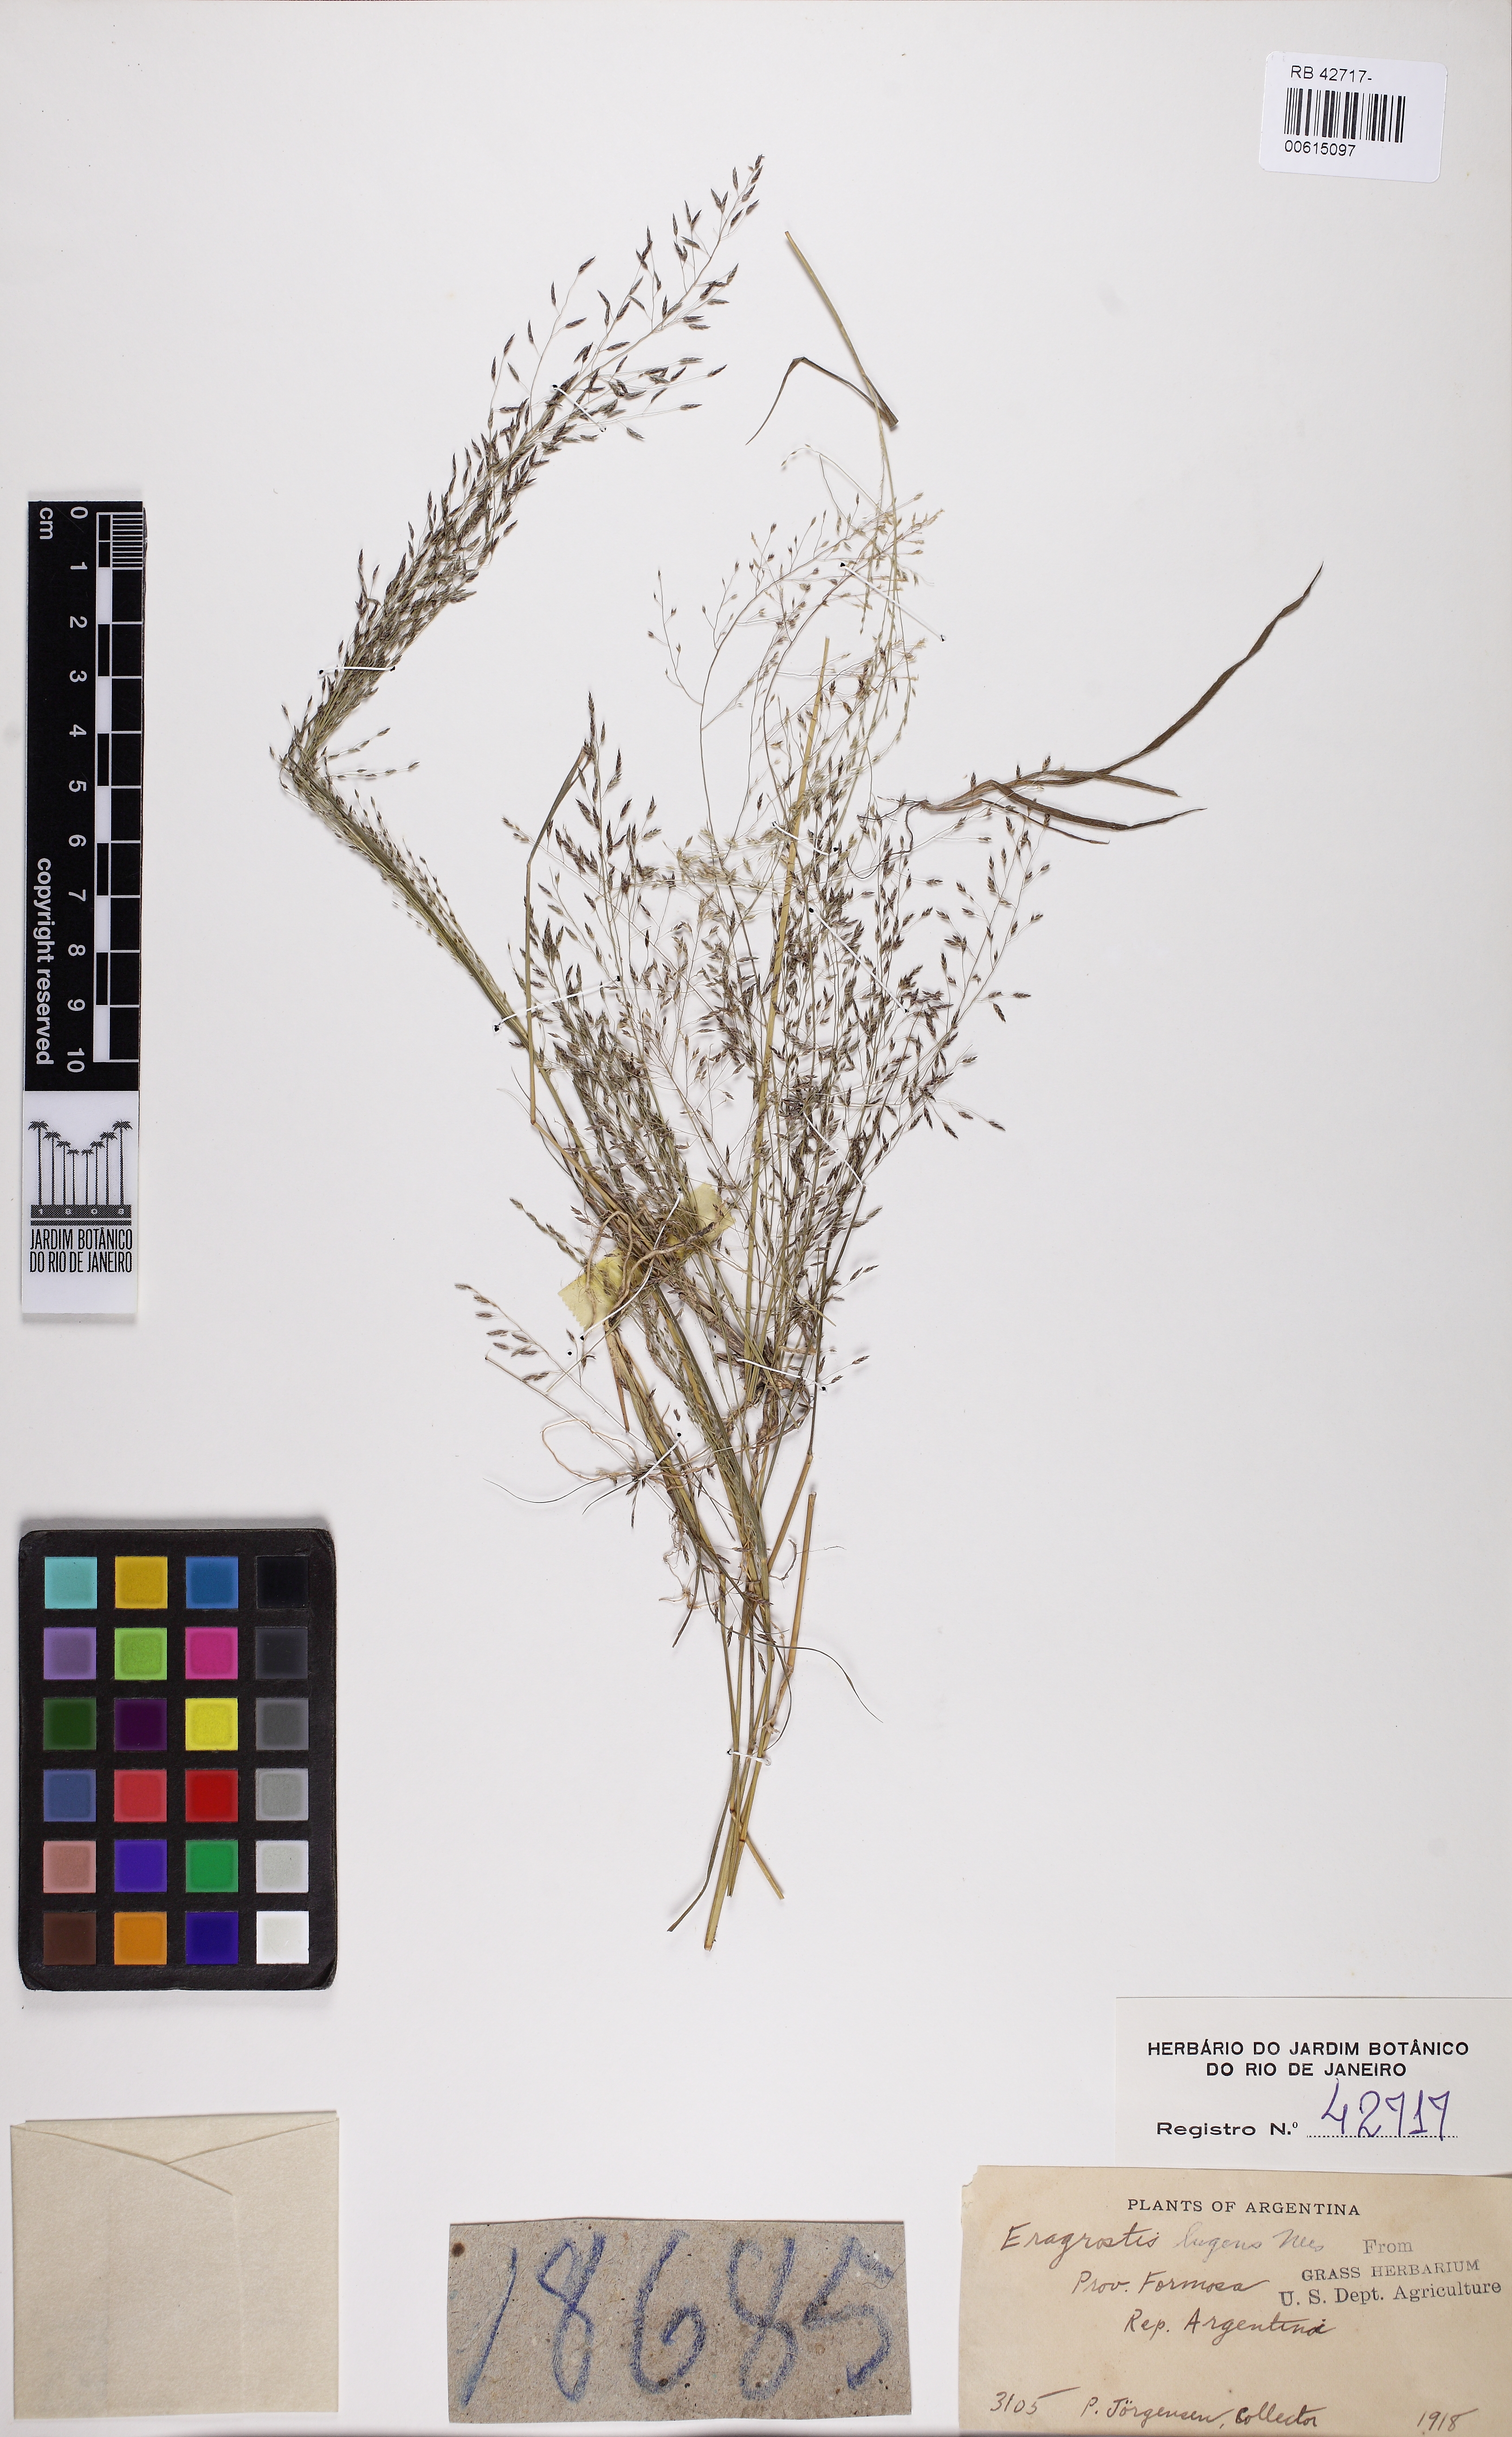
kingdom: Plantae
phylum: Tracheophyta
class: Liliopsida
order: Poales
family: Poaceae
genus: Eragrostis
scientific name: Eragrostis lugens
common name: Mourning love grass
